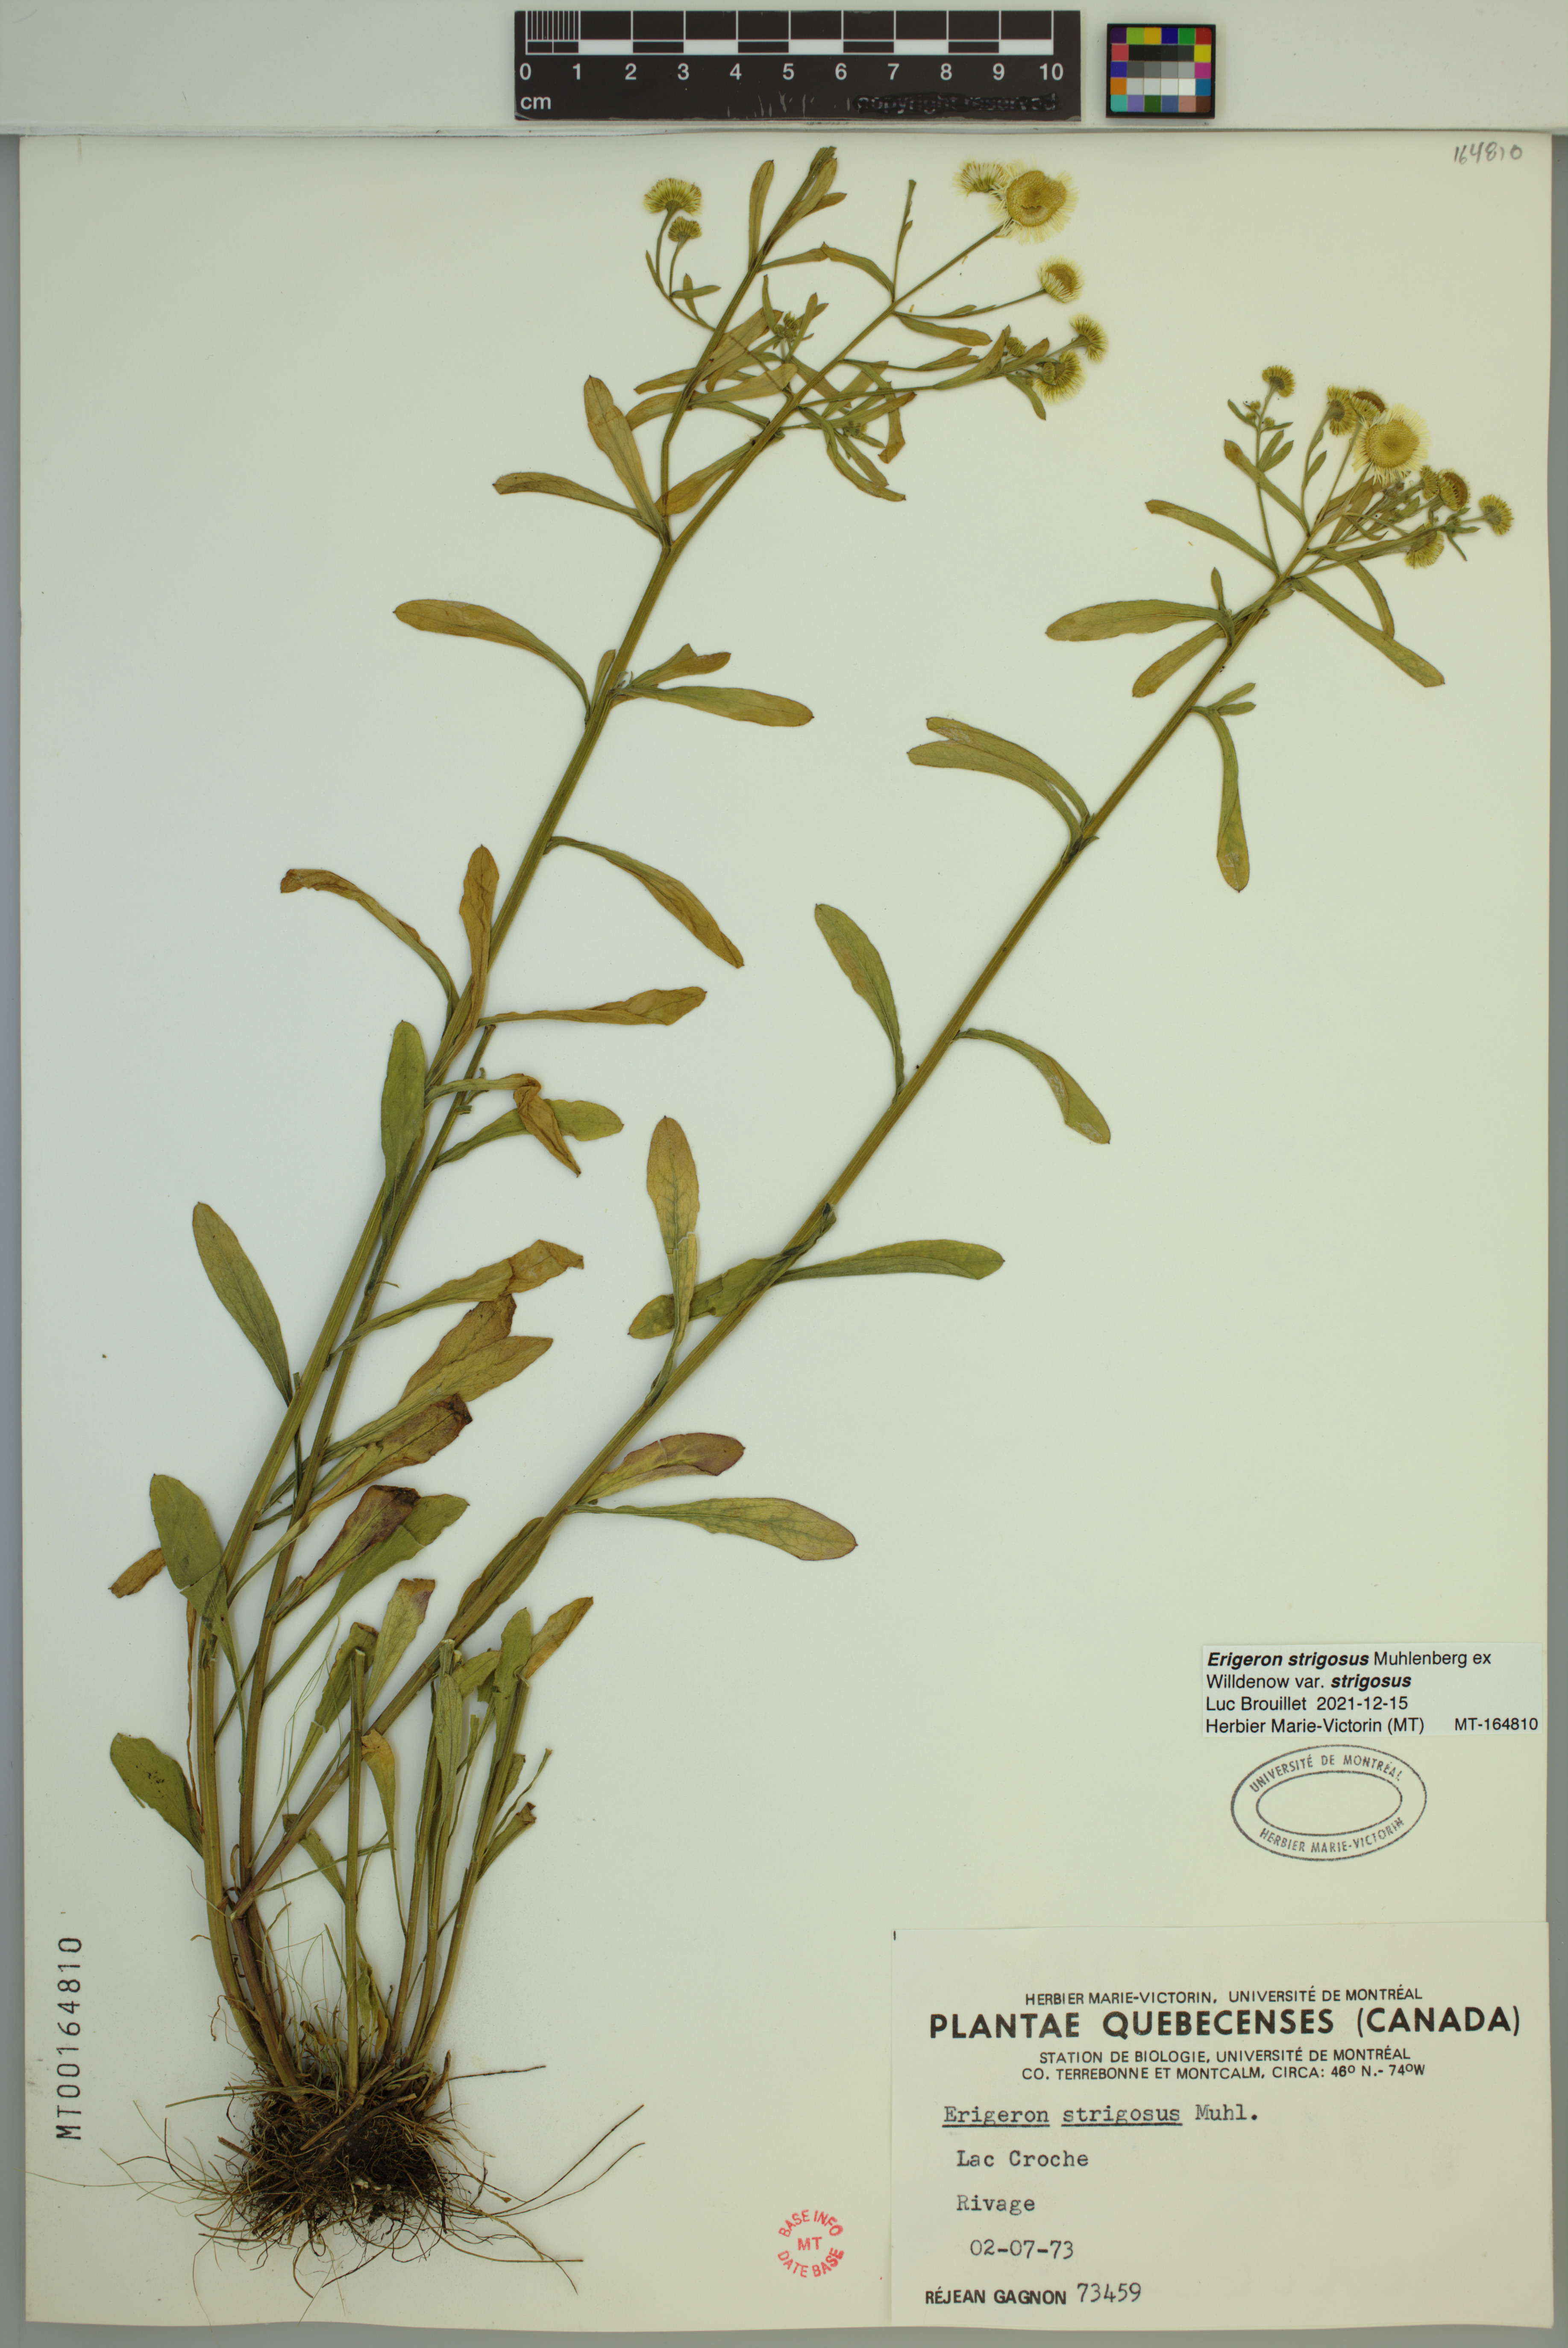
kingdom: Plantae
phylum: Tracheophyta
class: Magnoliopsida
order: Asterales
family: Asteraceae
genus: Erigeron
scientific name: Erigeron strigosus
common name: Common eastern fleabane
